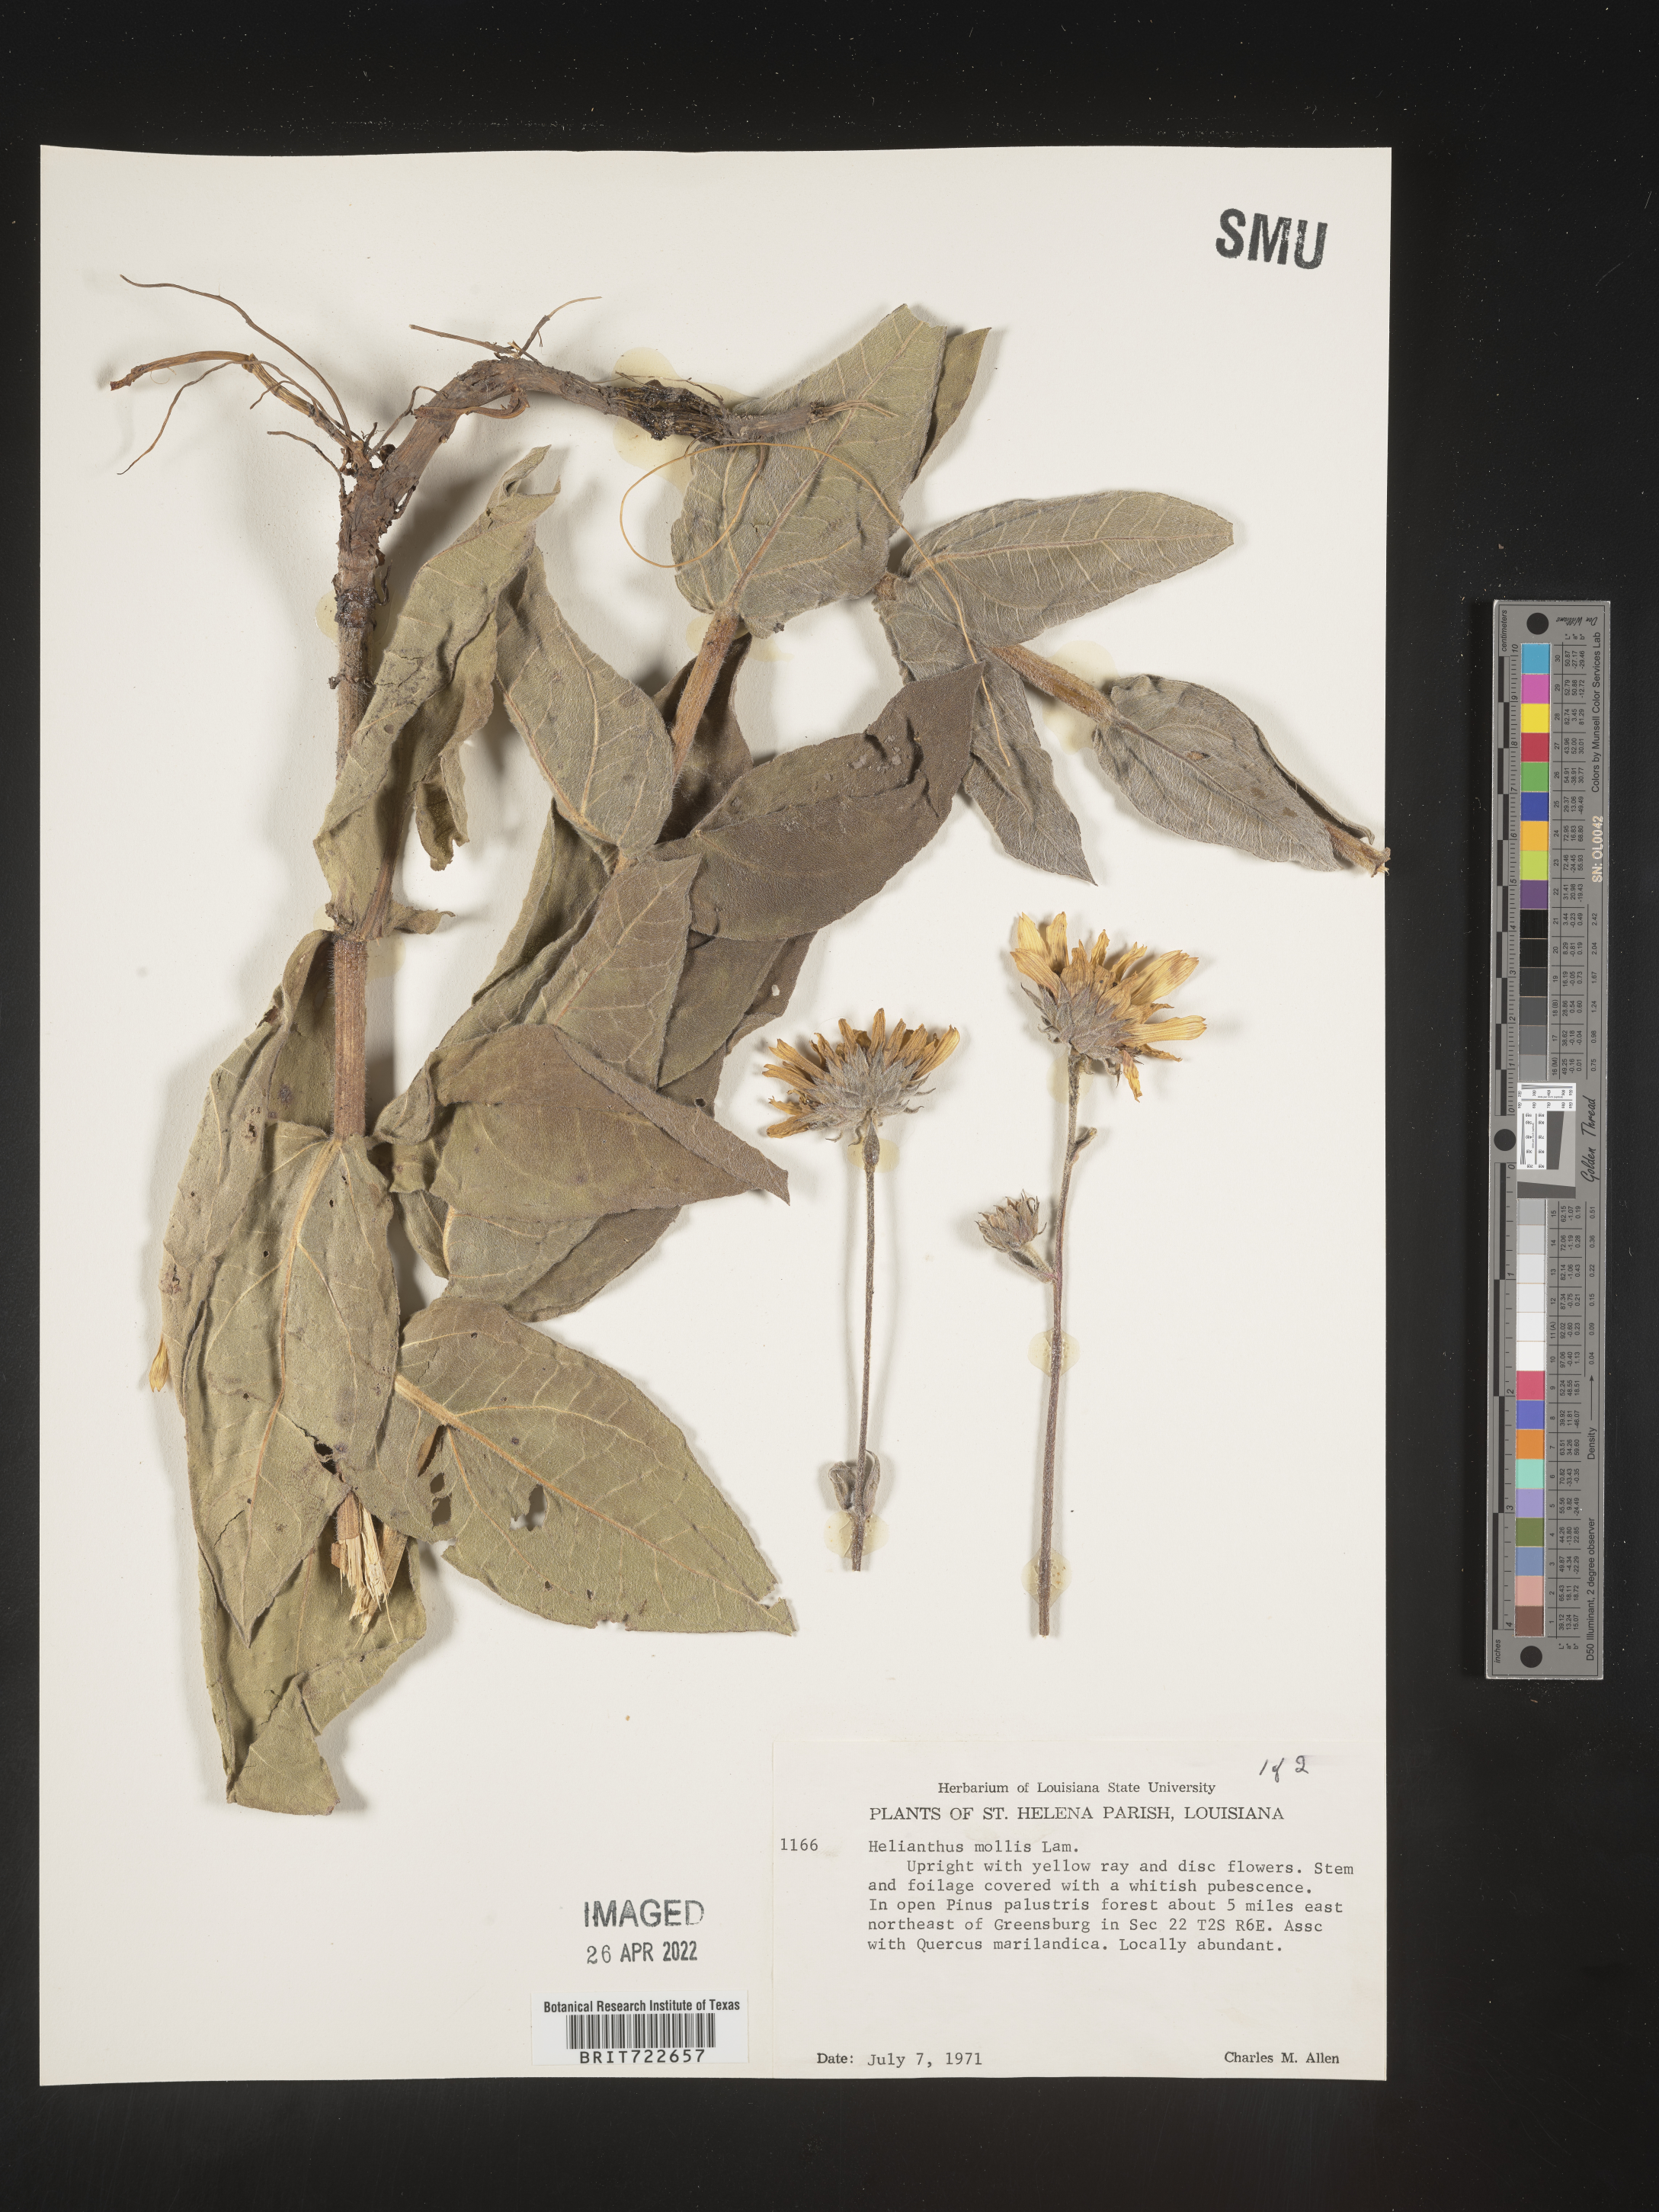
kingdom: Plantae
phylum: Tracheophyta
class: Magnoliopsida
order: Asterales
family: Asteraceae
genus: Helianthus
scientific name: Helianthus mollis
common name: Ashy sunflower
